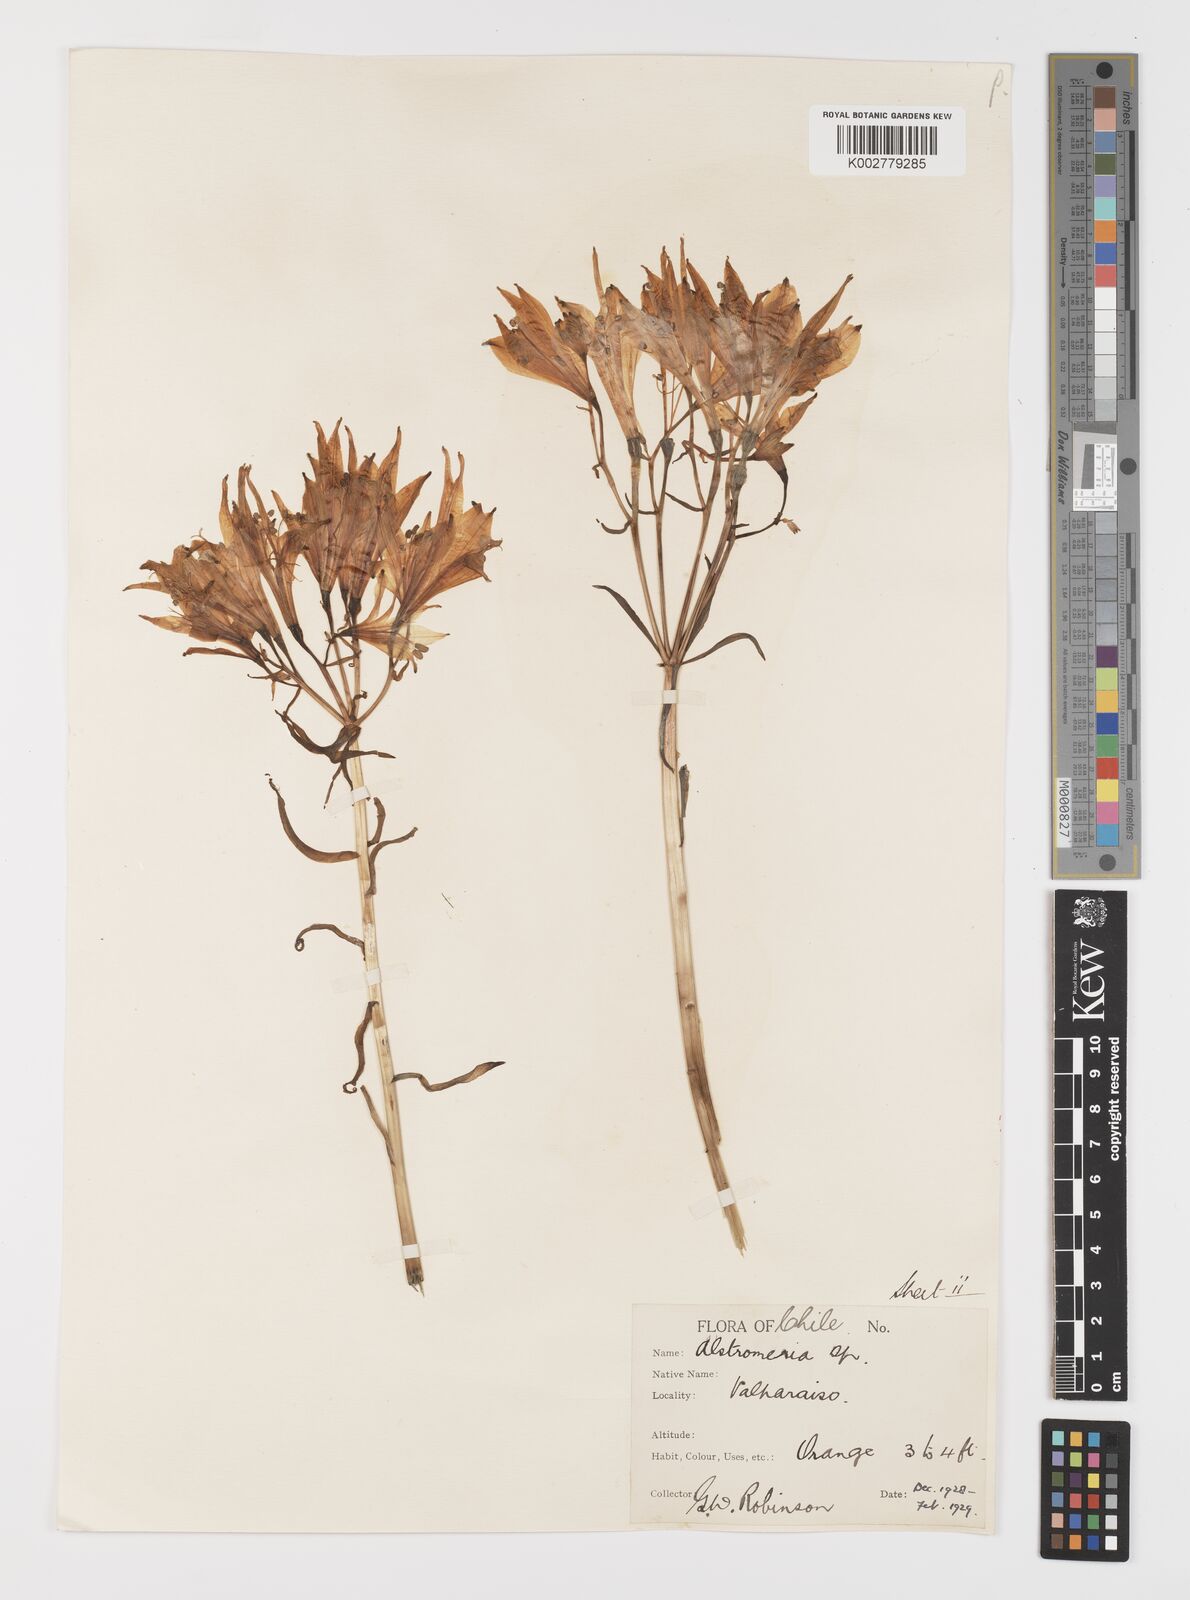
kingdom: Plantae
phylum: Tracheophyta
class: Liliopsida
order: Liliales
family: Alstroemeriaceae
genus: Alstroemeria
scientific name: Alstroemeria ligtu
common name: St. martin's-flower
